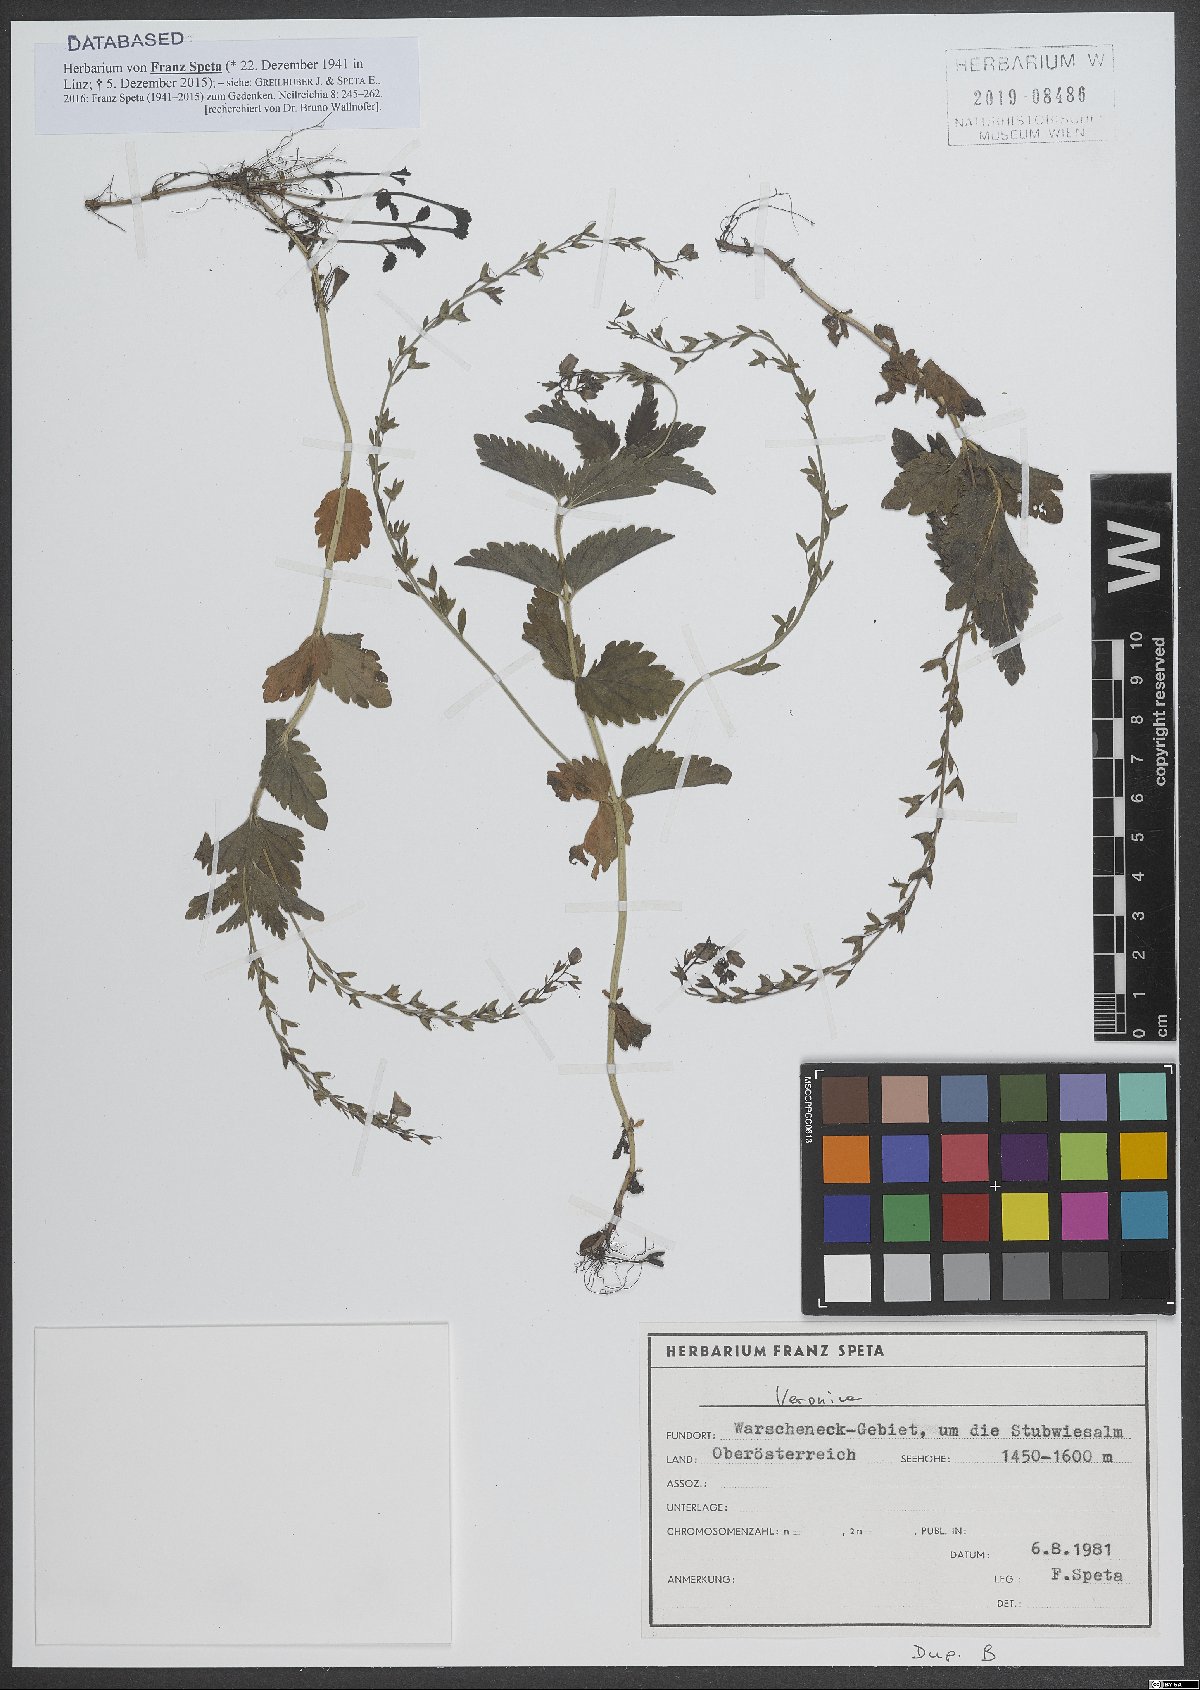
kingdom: Plantae
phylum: Tracheophyta
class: Magnoliopsida
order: Lamiales
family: Plantaginaceae
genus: Veronica
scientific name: Veronica
